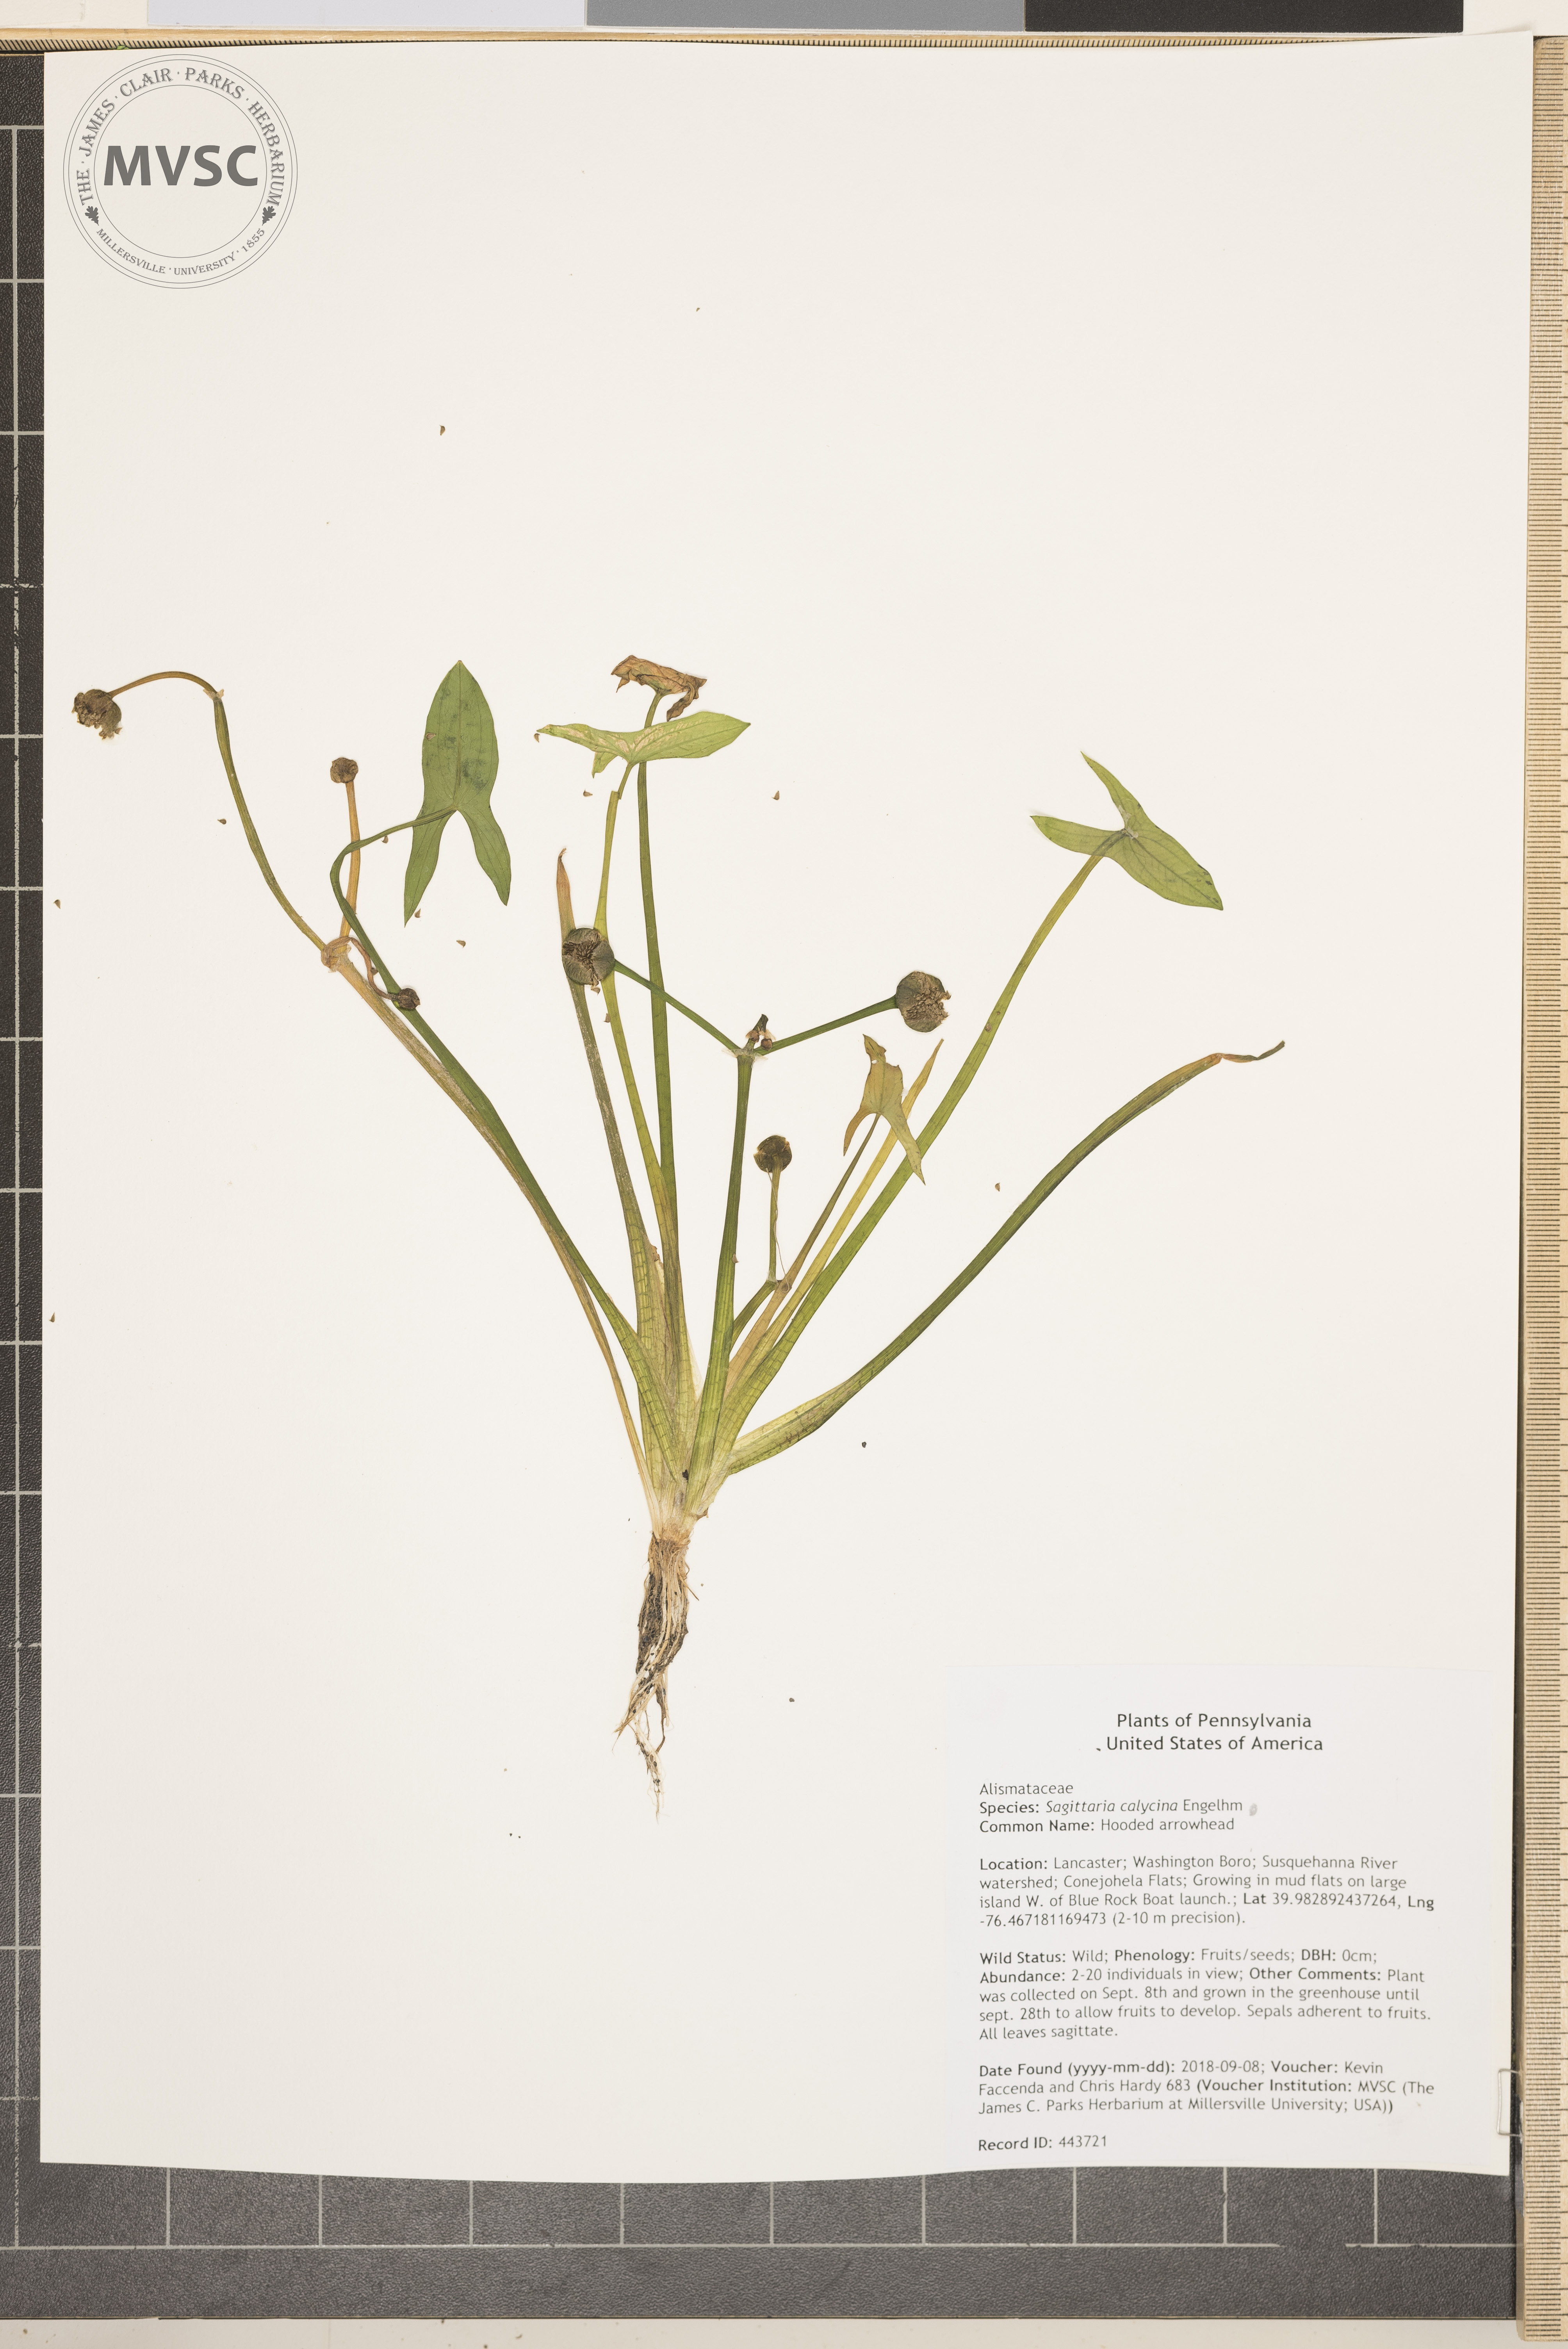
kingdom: Plantae
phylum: Tracheophyta
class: Liliopsida
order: Alismatales
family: Alismataceae
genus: Sagittaria
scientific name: Sagittaria montevidensis
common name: Hooded arrowhead
